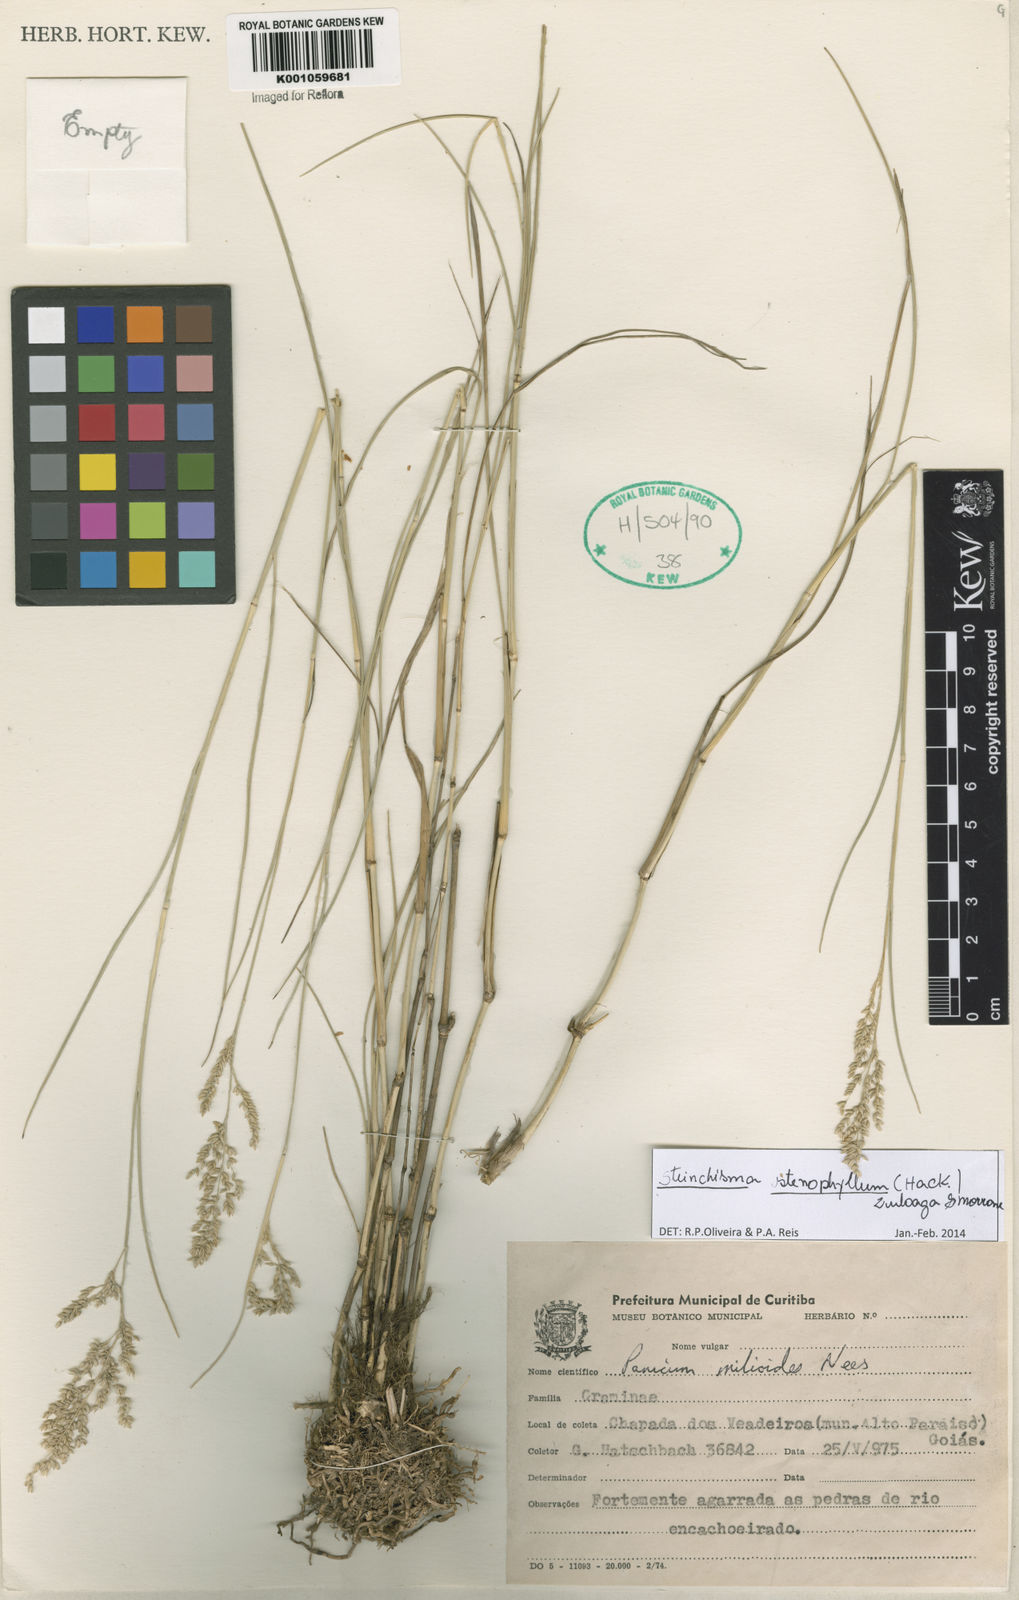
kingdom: Plantae
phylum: Tracheophyta
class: Liliopsida
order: Poales
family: Poaceae
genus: Steinchisma
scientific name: Steinchisma stenophyllum
